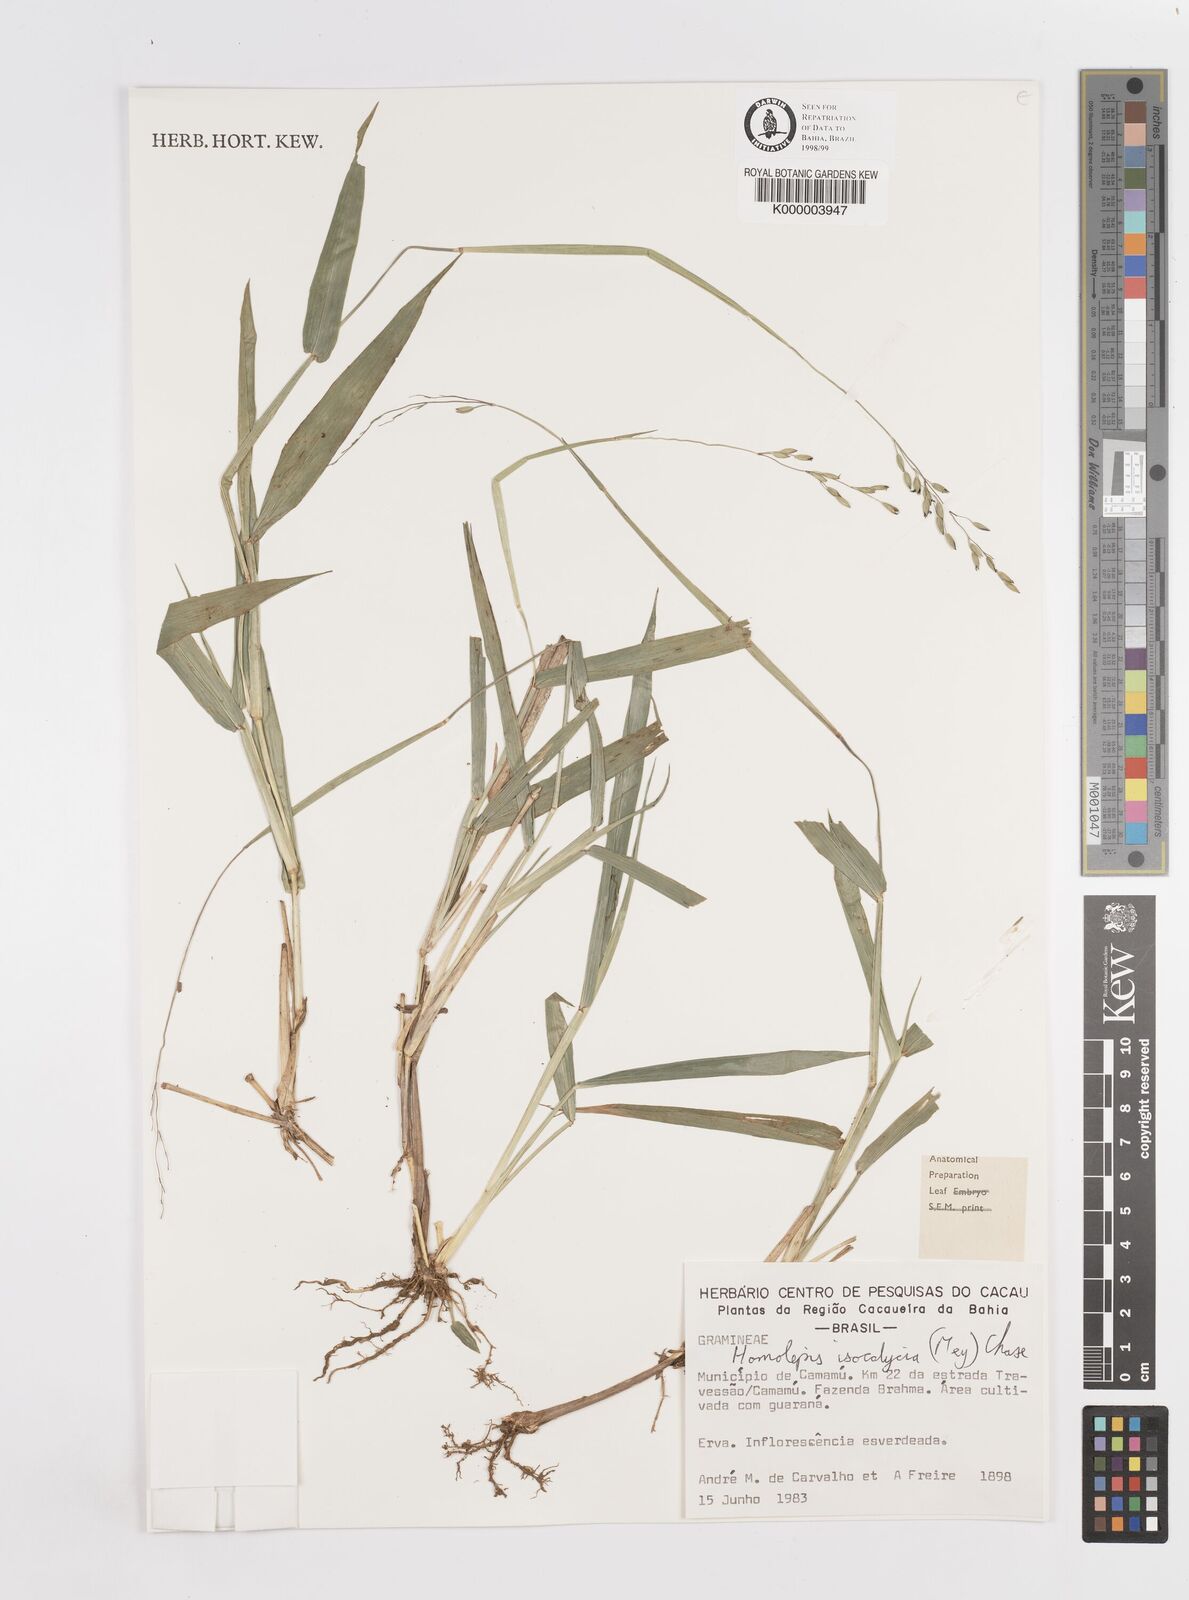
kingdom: Plantae
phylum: Tracheophyta
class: Liliopsida
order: Poales
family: Poaceae
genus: Homolepis
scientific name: Homolepis
